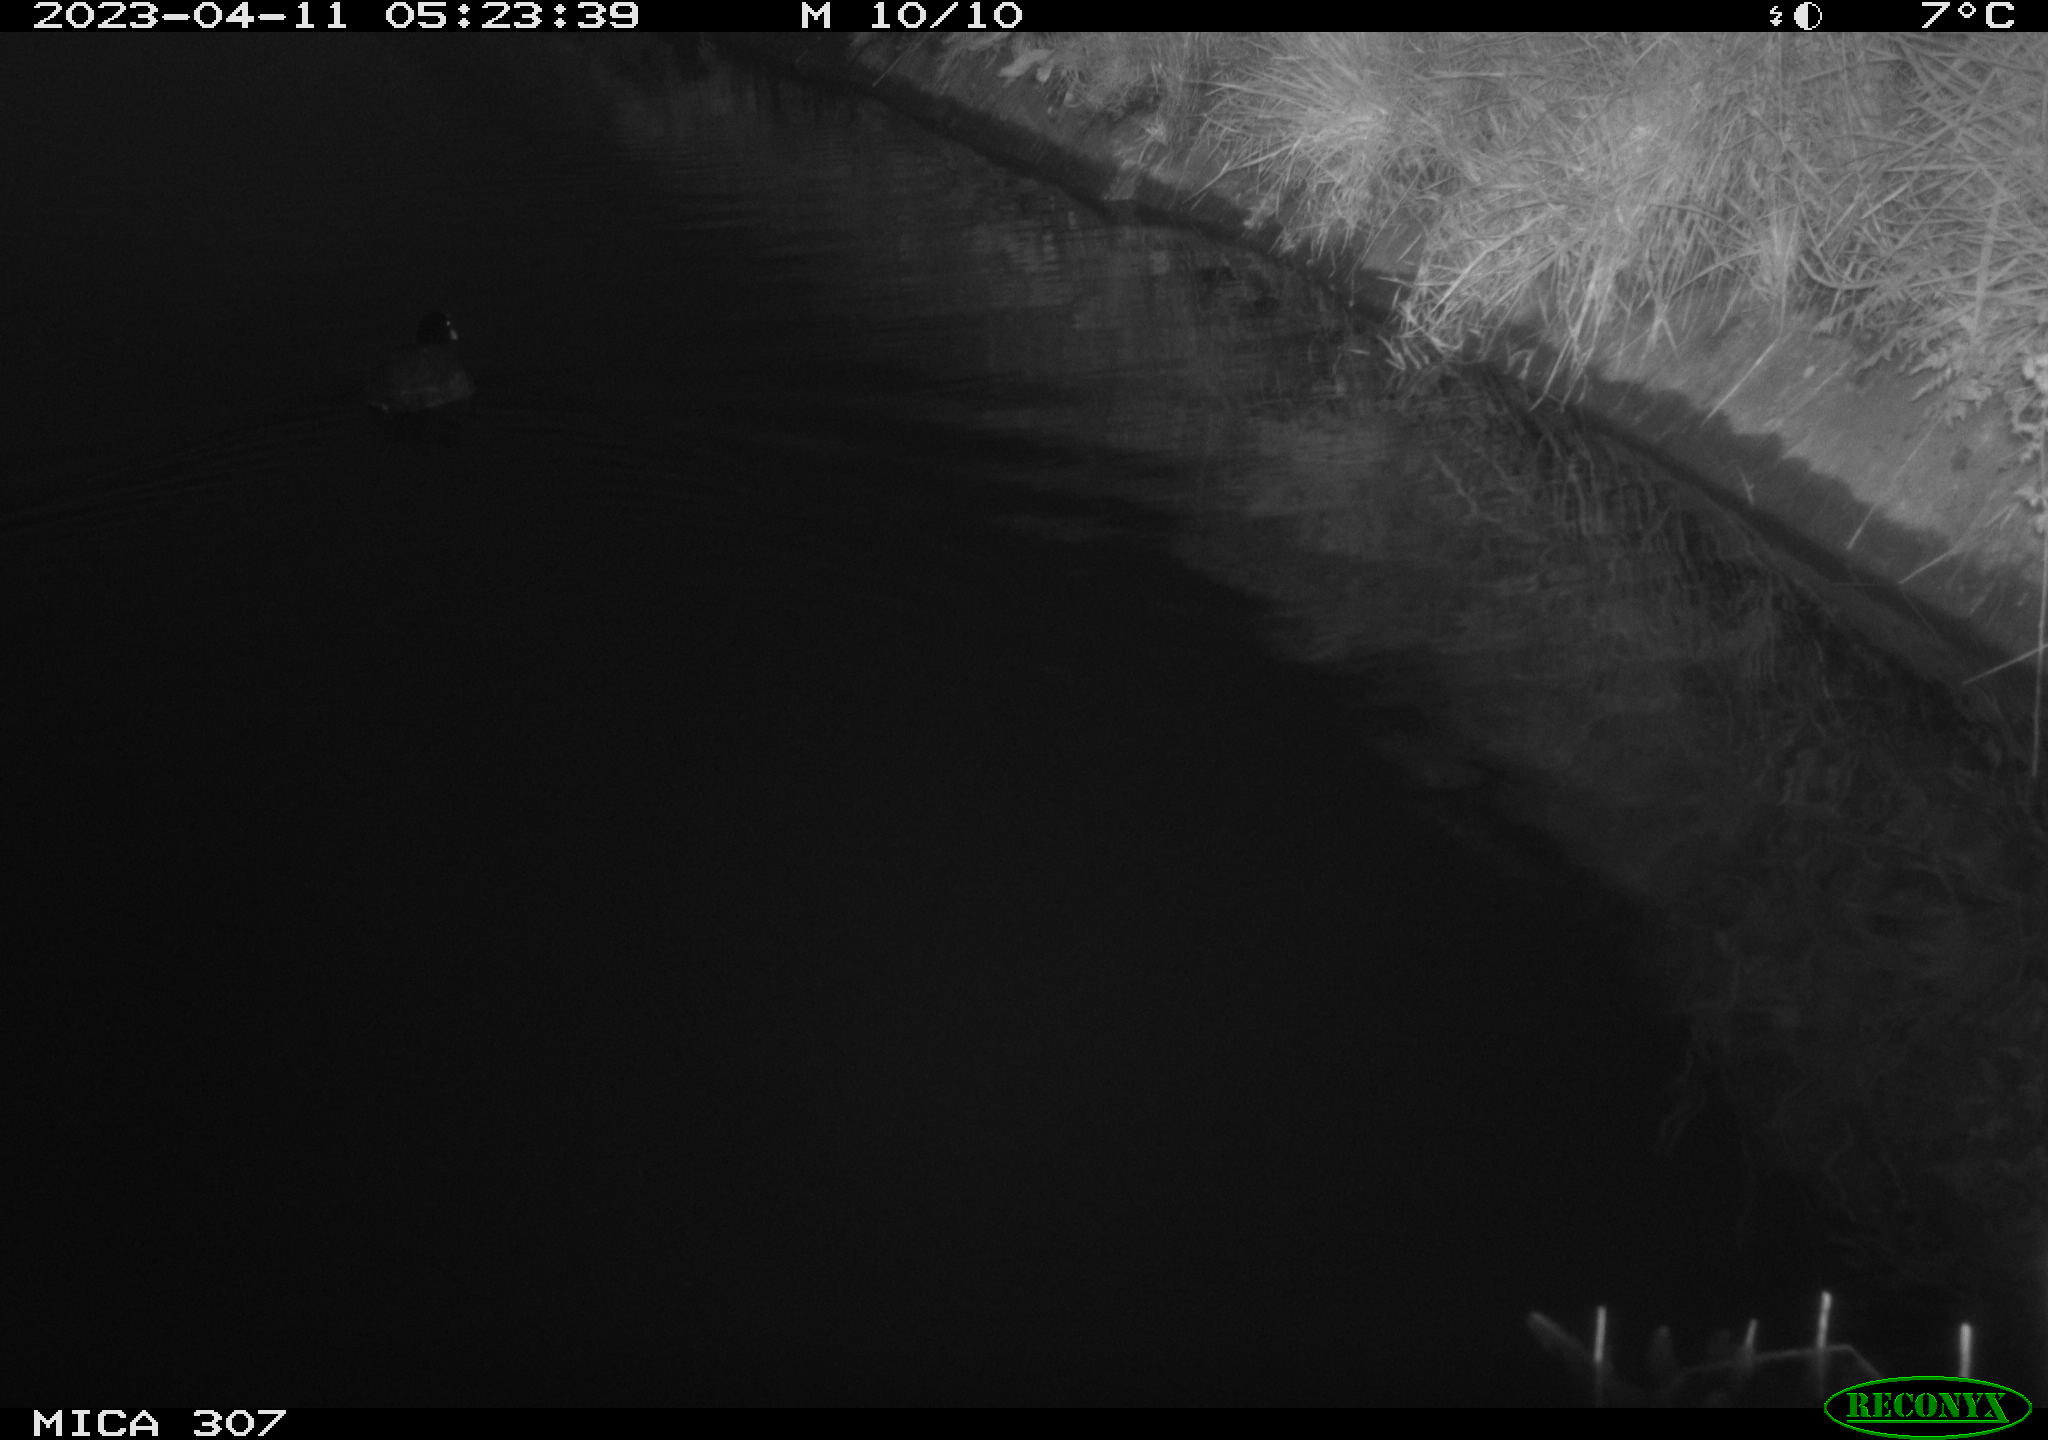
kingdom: Animalia
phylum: Chordata
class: Aves
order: Gruiformes
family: Rallidae
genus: Fulica
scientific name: Fulica atra
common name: Eurasian coot
